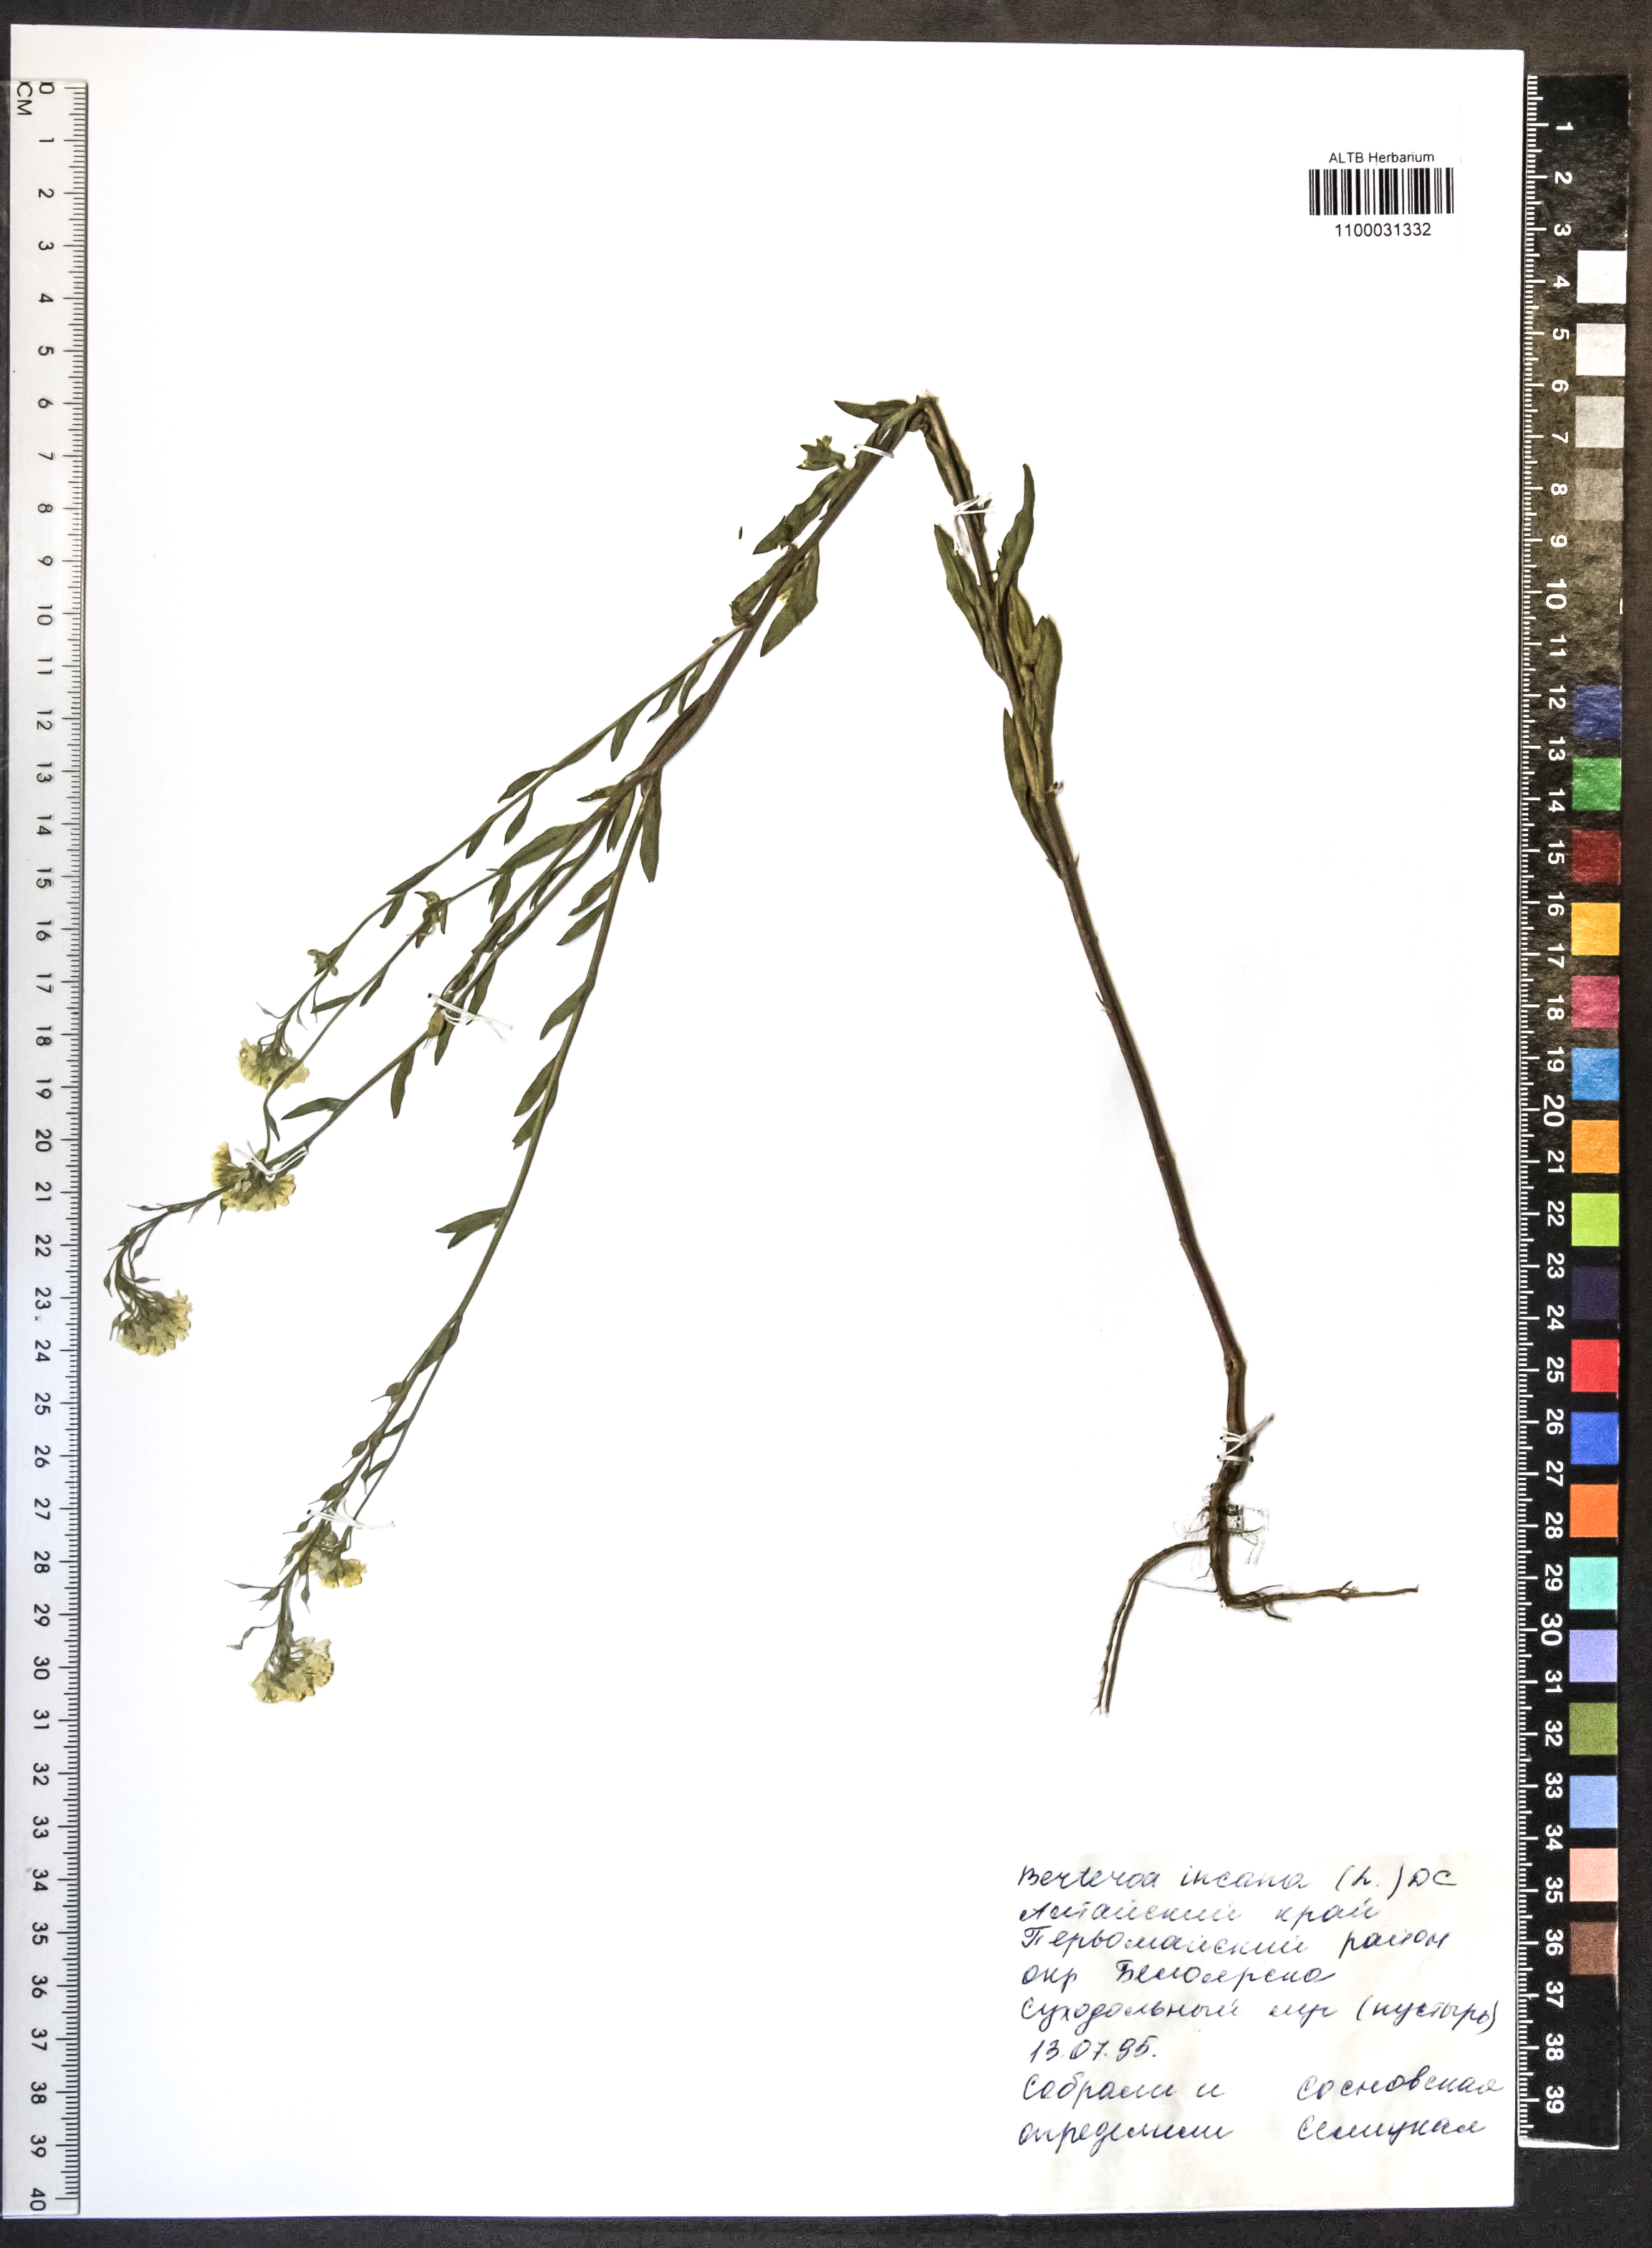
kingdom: Plantae
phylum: Tracheophyta
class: Magnoliopsida
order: Brassicales
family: Brassicaceae
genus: Berteroa
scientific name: Berteroa incana
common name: Hoary alison
